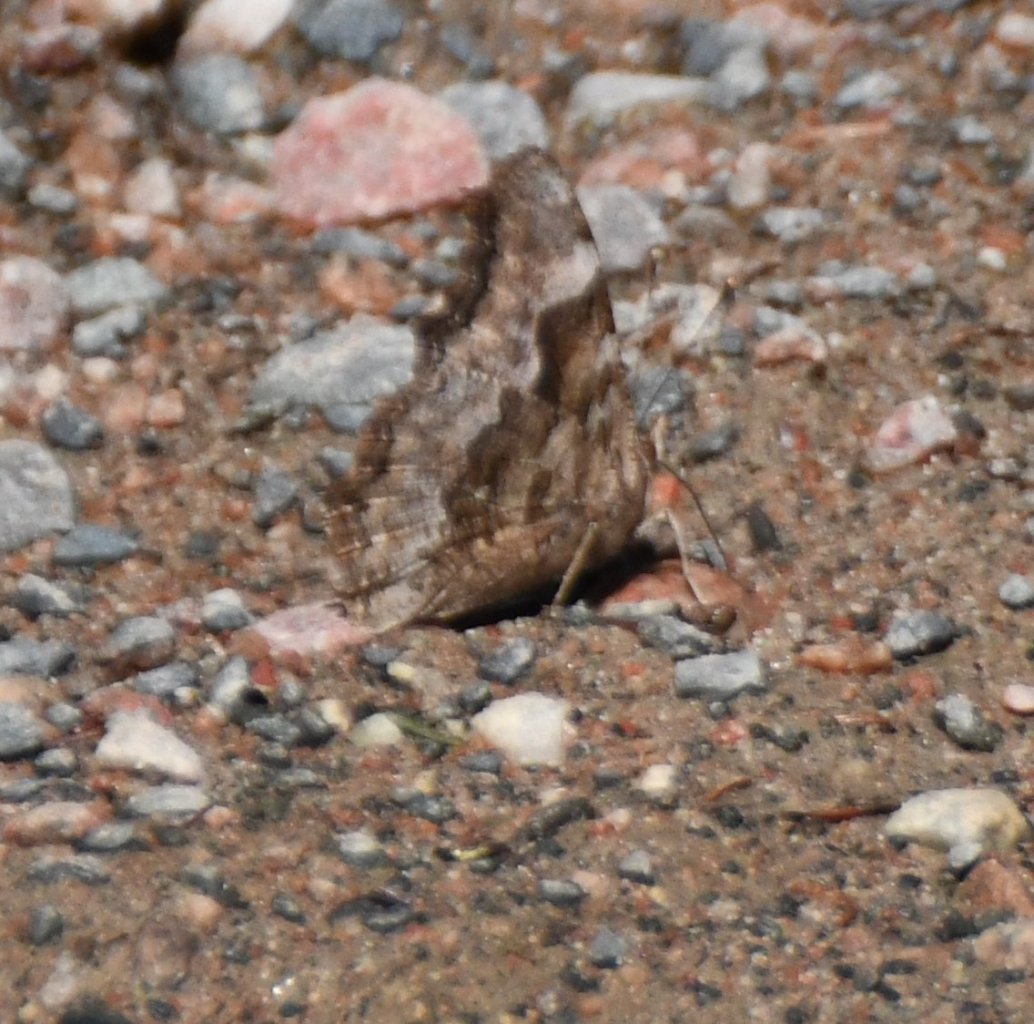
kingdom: Animalia
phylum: Arthropoda
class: Insecta
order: Lepidoptera
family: Nymphalidae
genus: Polygonia
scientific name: Polygonia vaualbum
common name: Compton Tortoiseshell
